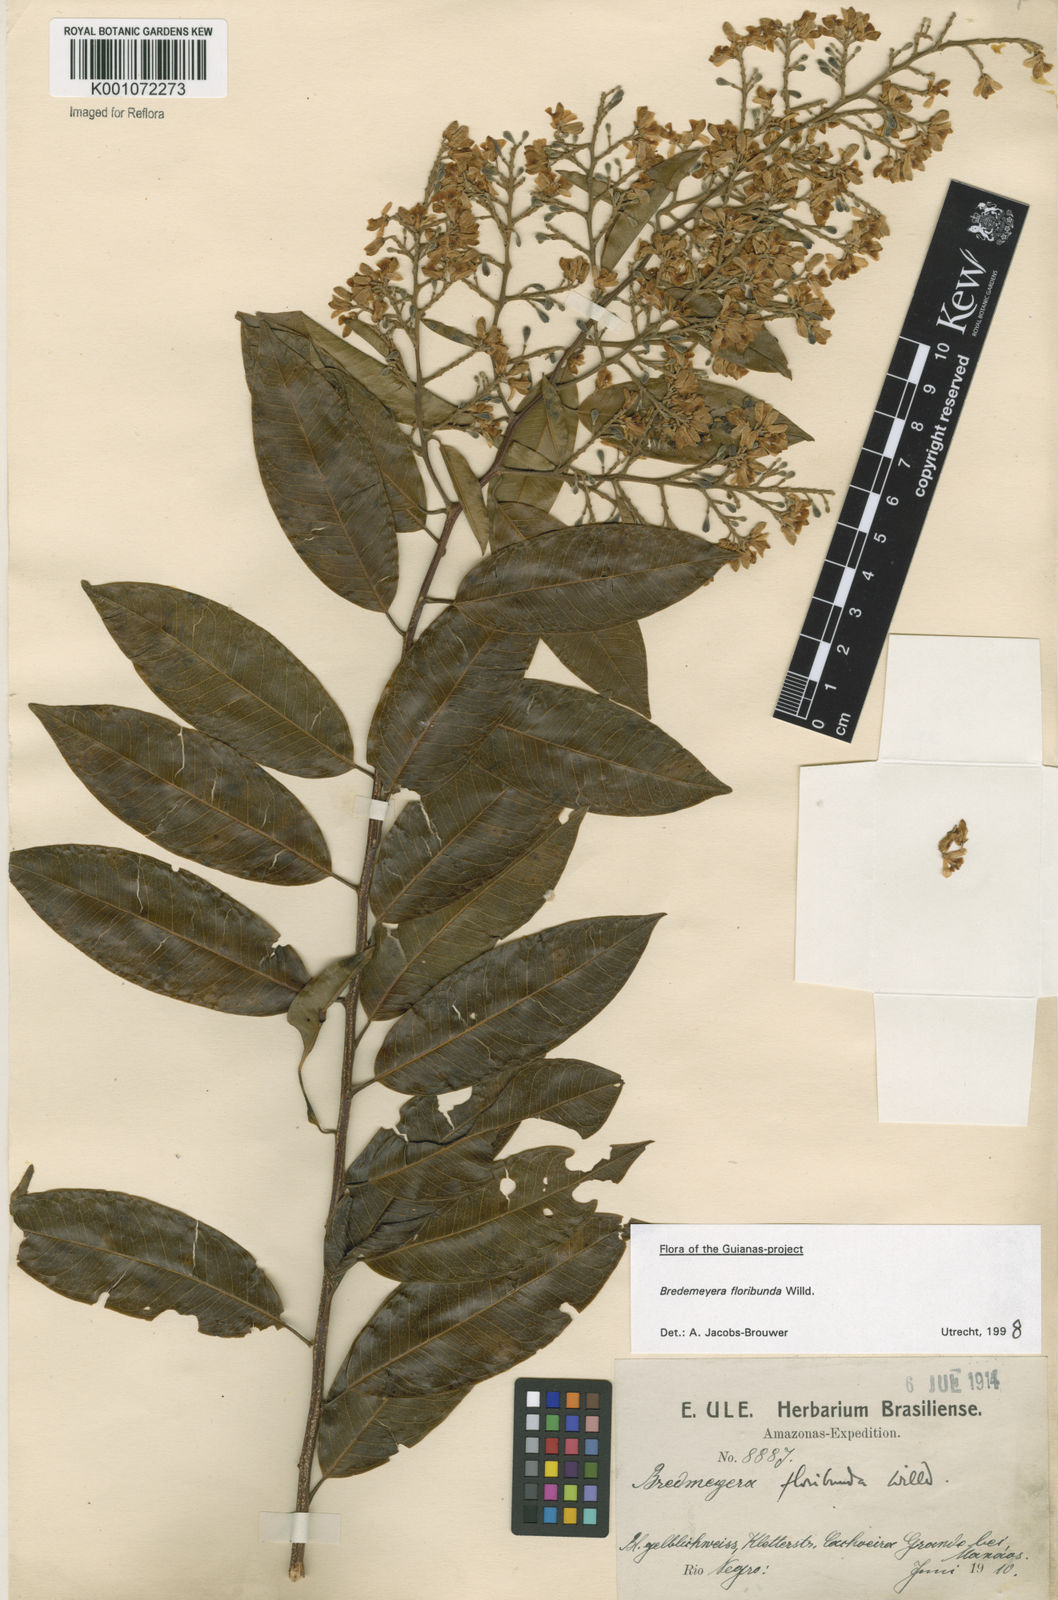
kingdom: Plantae
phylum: Tracheophyta
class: Magnoliopsida
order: Fabales
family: Polygalaceae
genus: Bredemeyera
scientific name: Bredemeyera floribunda
